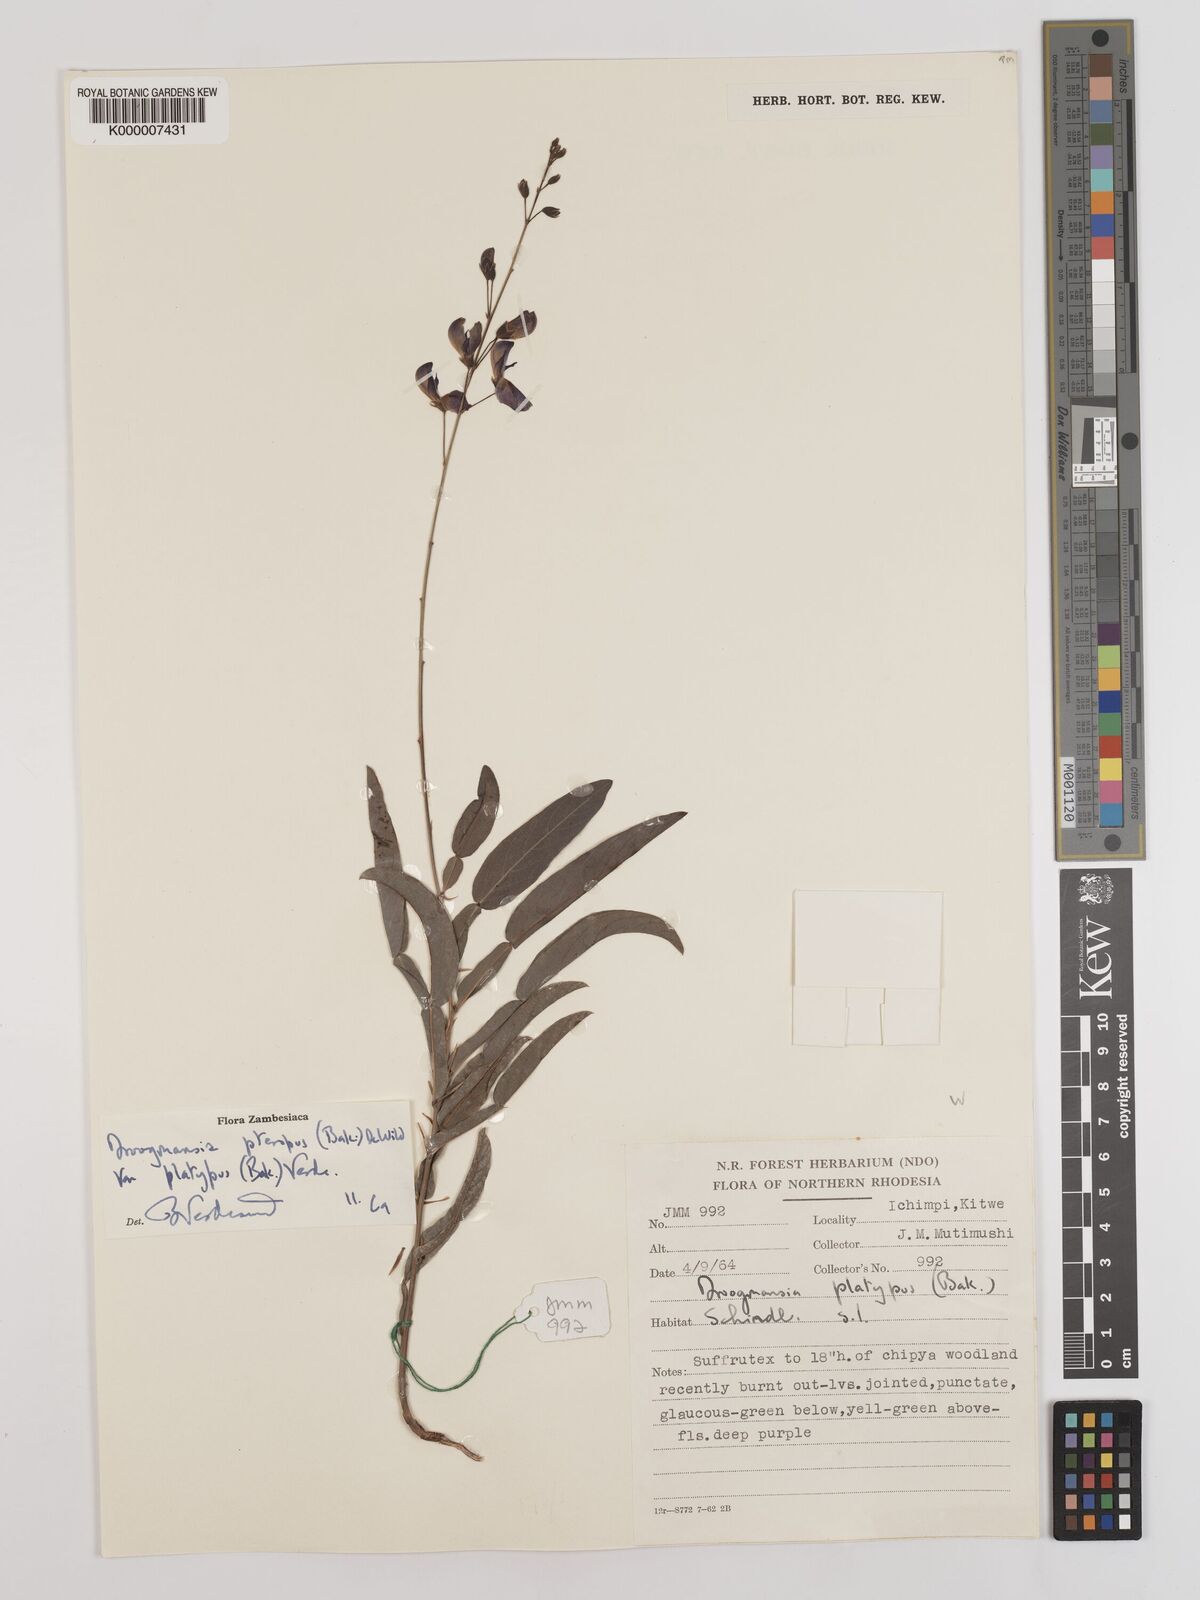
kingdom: Plantae
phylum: Tracheophyta
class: Magnoliopsida
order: Fabales
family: Fabaceae
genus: Droogmansia
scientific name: Droogmansia pteropus
